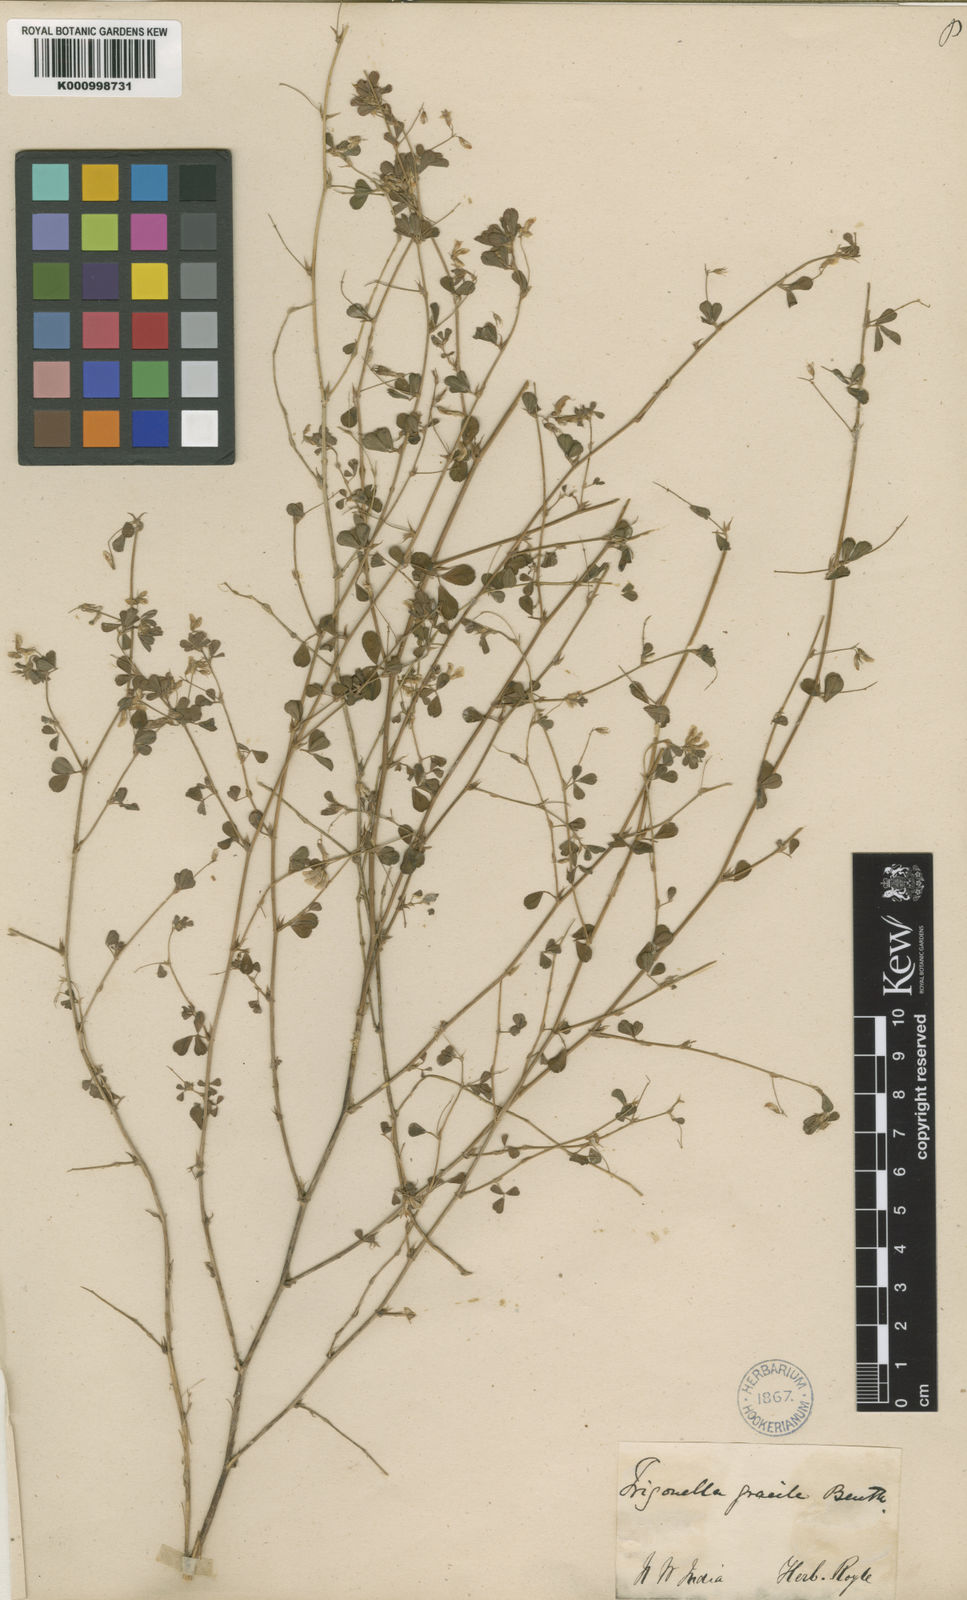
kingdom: Plantae
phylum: Tracheophyta
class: Magnoliopsida
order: Fabales
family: Fabaceae
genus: Trigonella
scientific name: Trigonella gracilis
